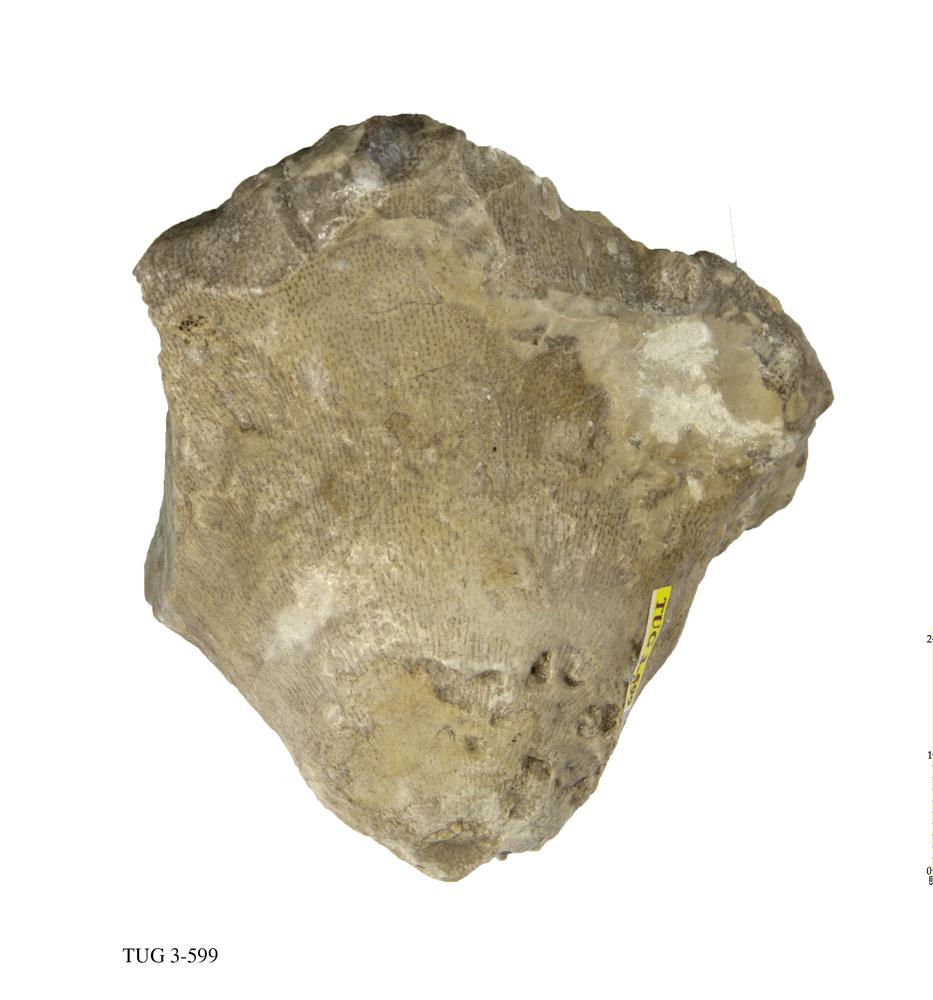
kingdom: Animalia
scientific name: Animalia
